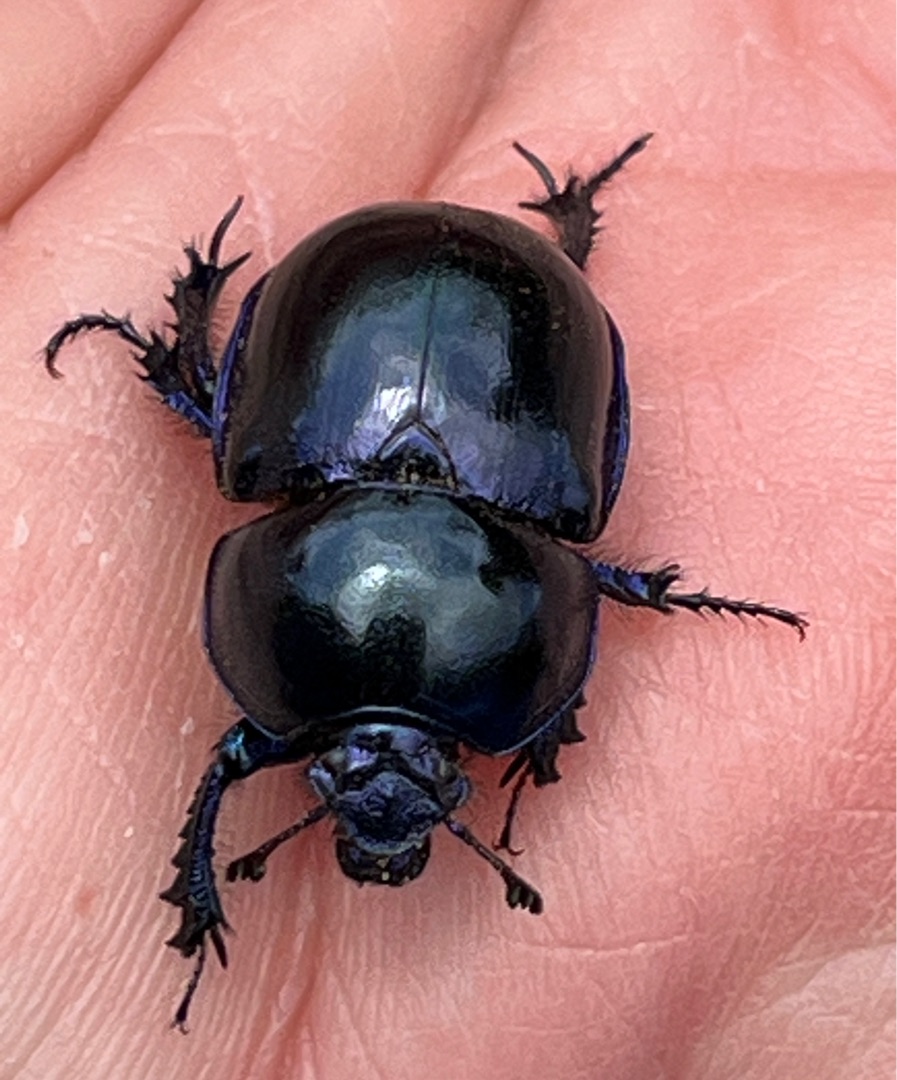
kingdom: Animalia
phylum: Arthropoda
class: Insecta
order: Coleoptera
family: Geotrupidae
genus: Trypocopris
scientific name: Trypocopris vernalis
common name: Glat skarnbasse
